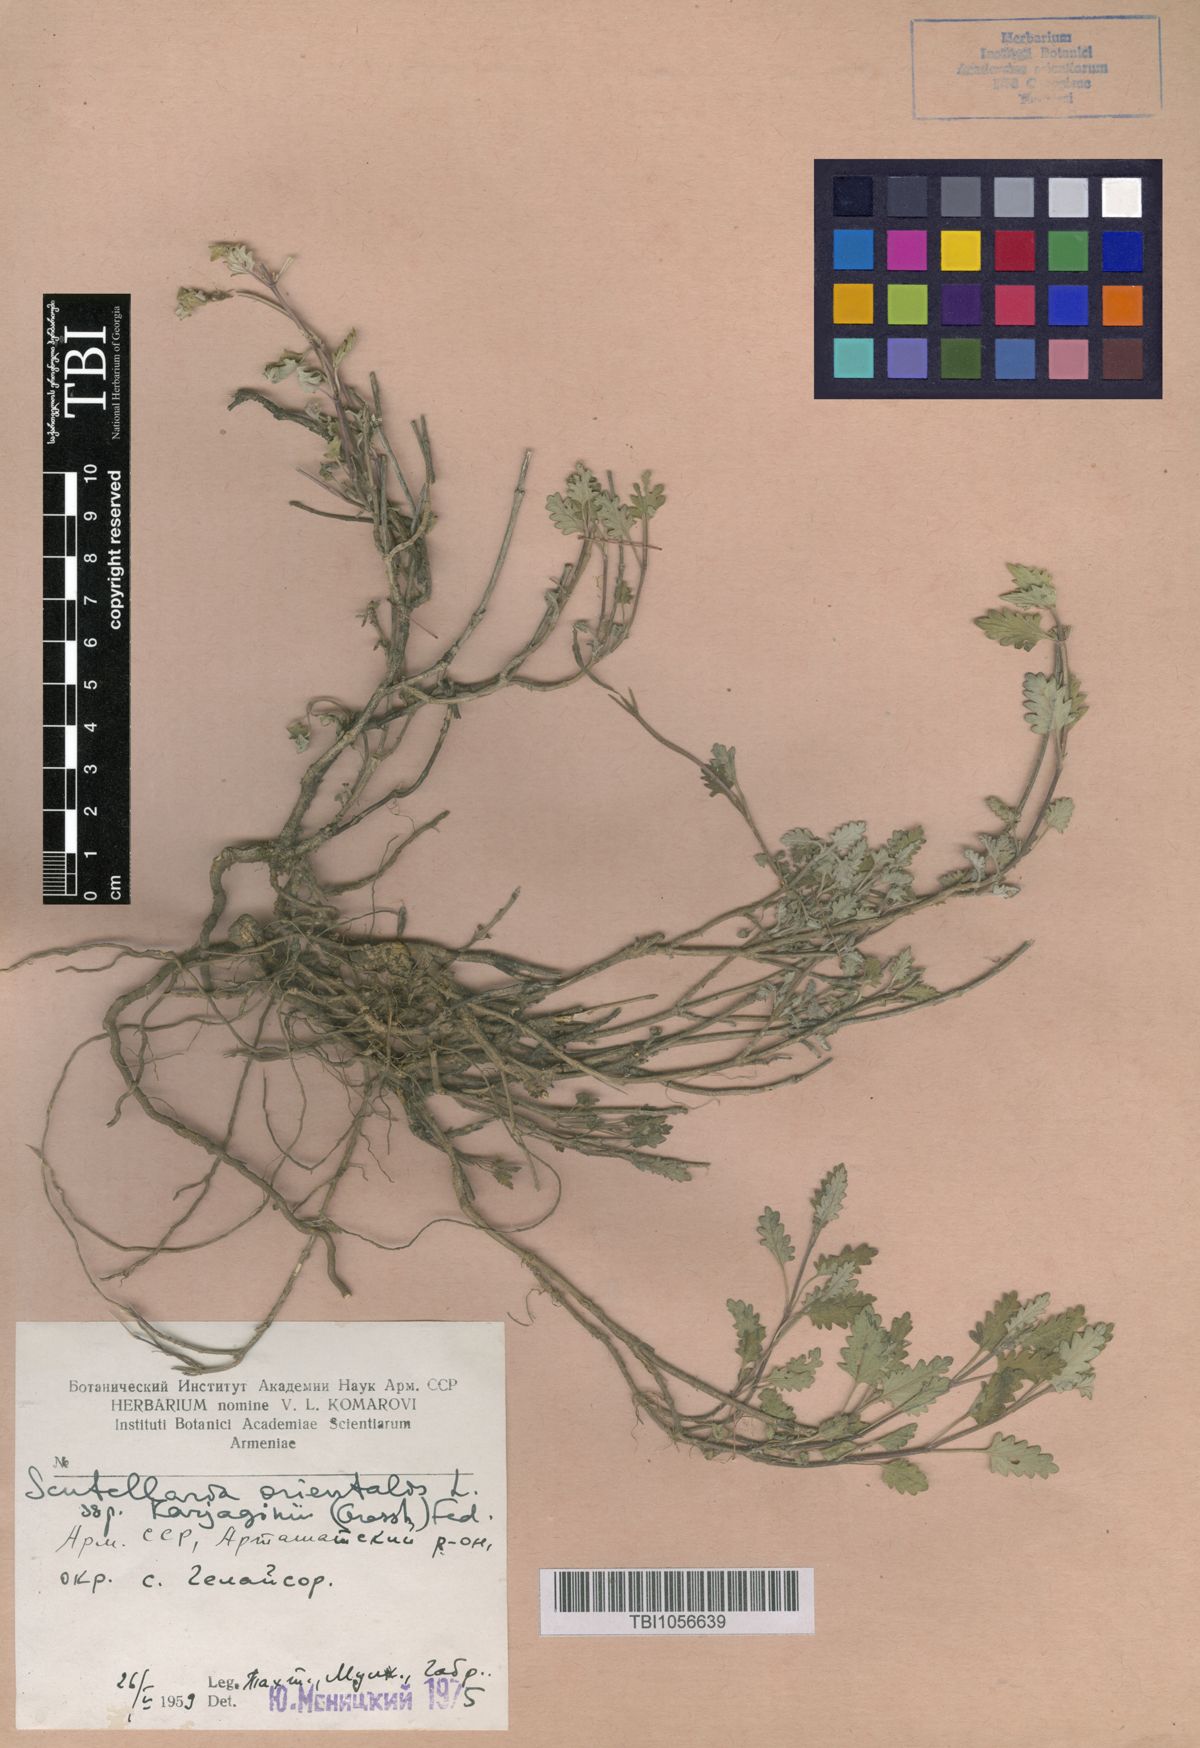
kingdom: Plantae
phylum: Tracheophyta
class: Magnoliopsida
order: Lamiales
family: Lamiaceae
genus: Scutellaria
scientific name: Scutellaria orientalis
